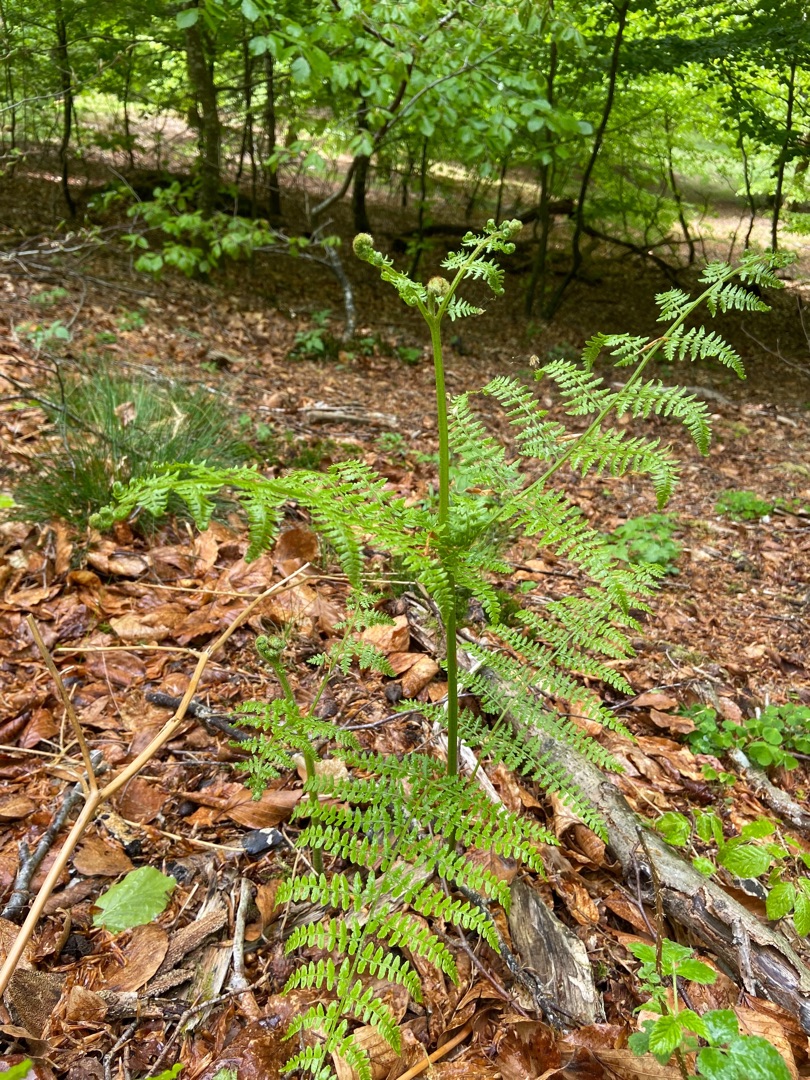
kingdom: Plantae
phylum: Tracheophyta
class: Polypodiopsida
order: Polypodiales
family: Dennstaedtiaceae
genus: Pteridium
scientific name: Pteridium aquilinum
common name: Ørnebregne
